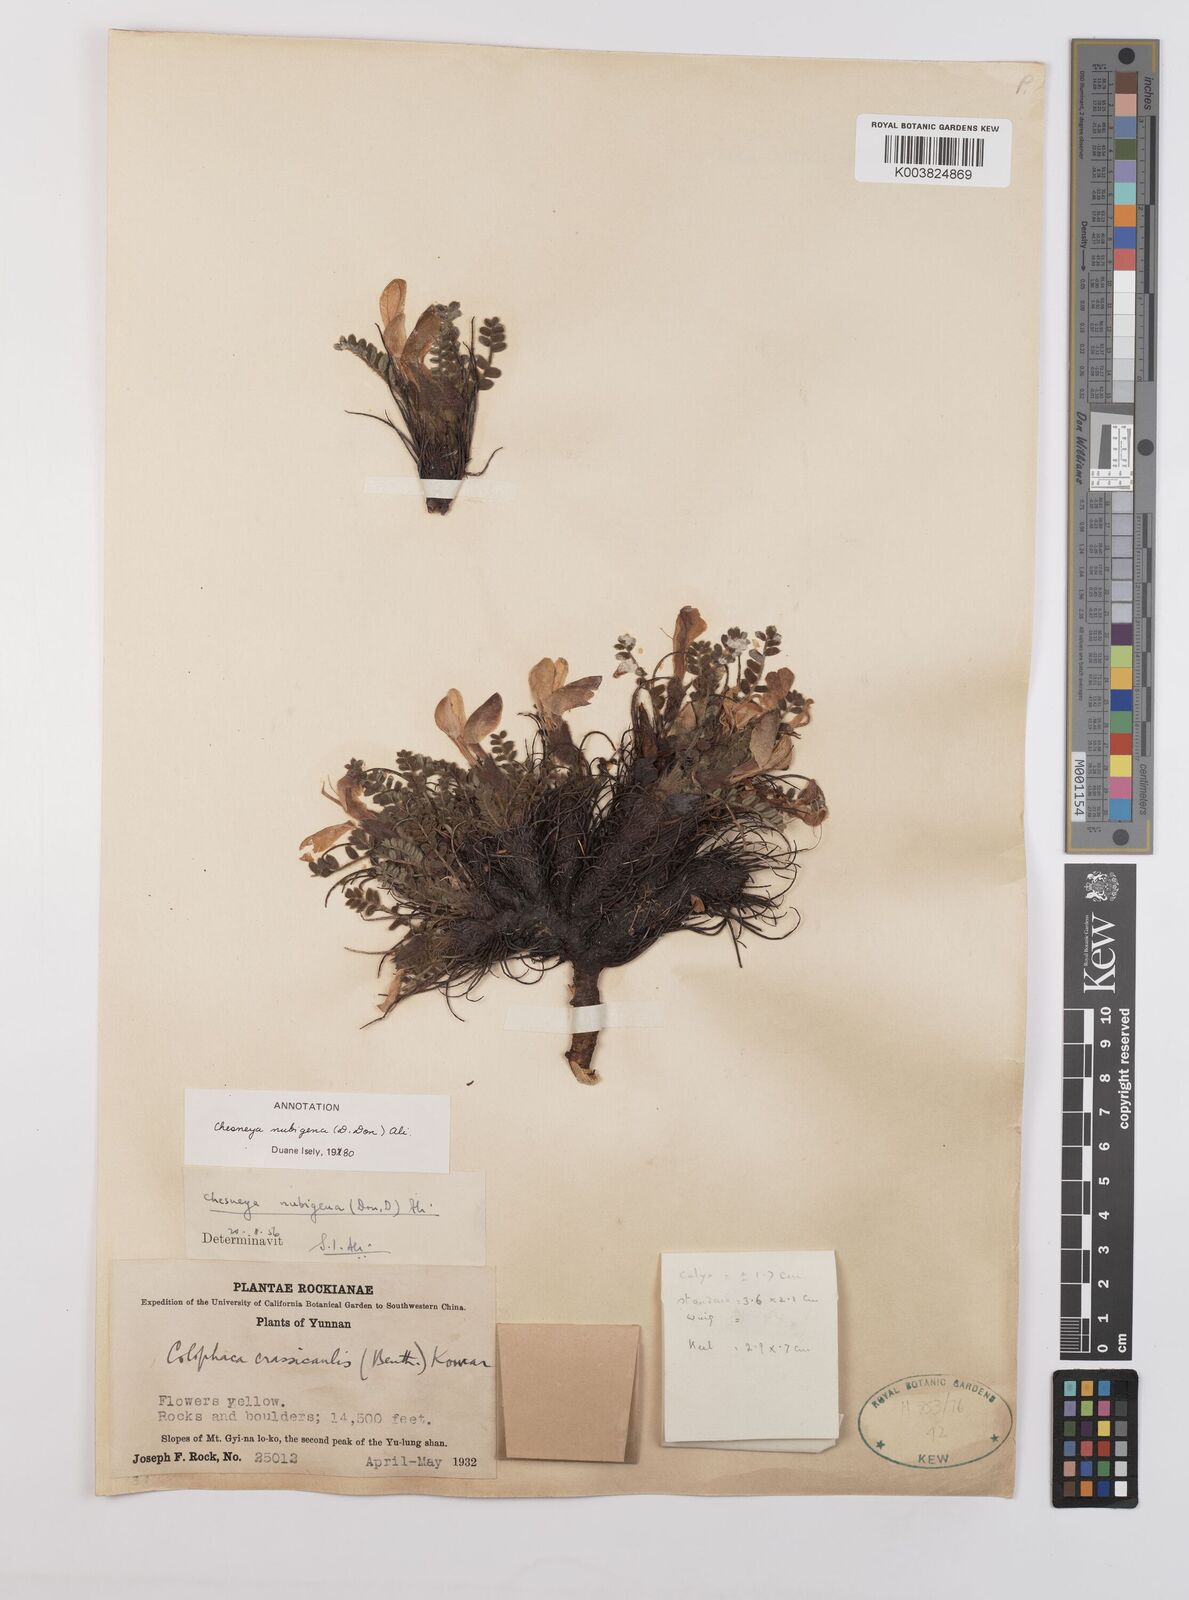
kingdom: Plantae
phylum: Tracheophyta
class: Magnoliopsida
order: Fabales
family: Fabaceae
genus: Chesneya
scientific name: Chesneya nubigena
